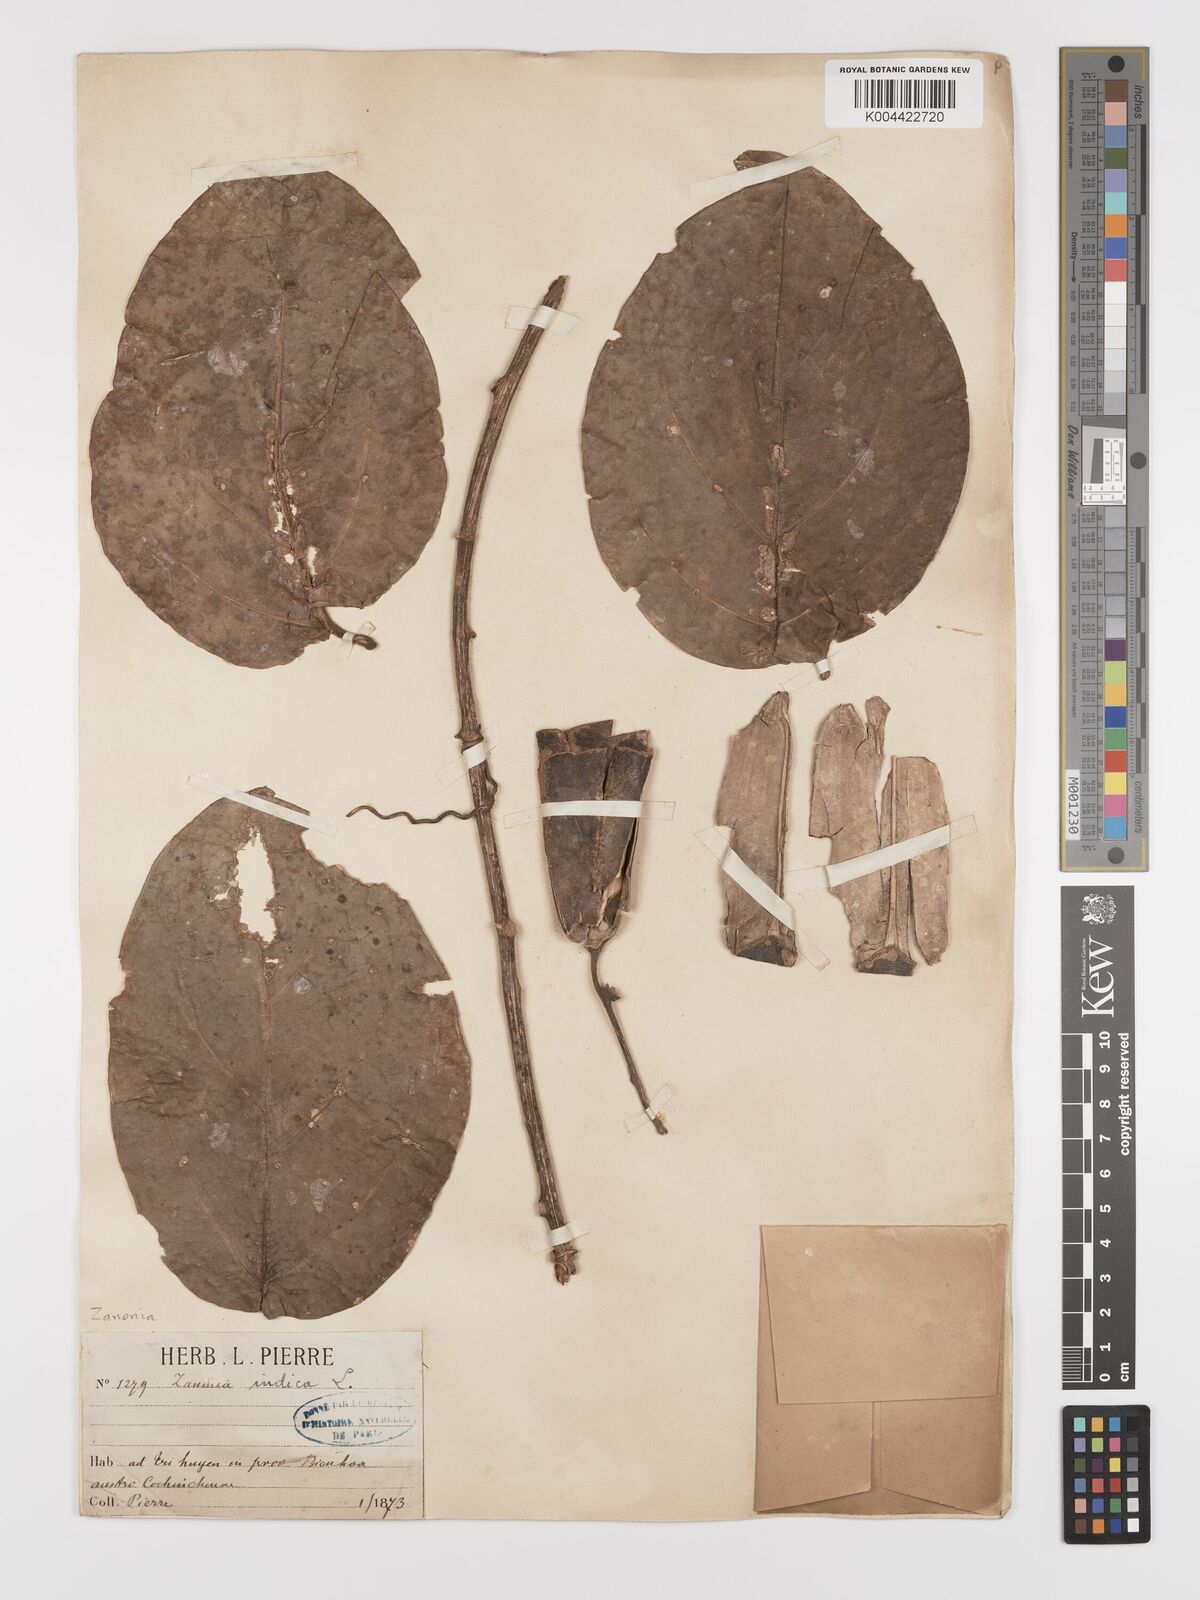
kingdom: Plantae
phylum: Tracheophyta
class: Magnoliopsida
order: Cucurbitales
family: Cucurbitaceae
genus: Zanonia
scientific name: Zanonia indica
